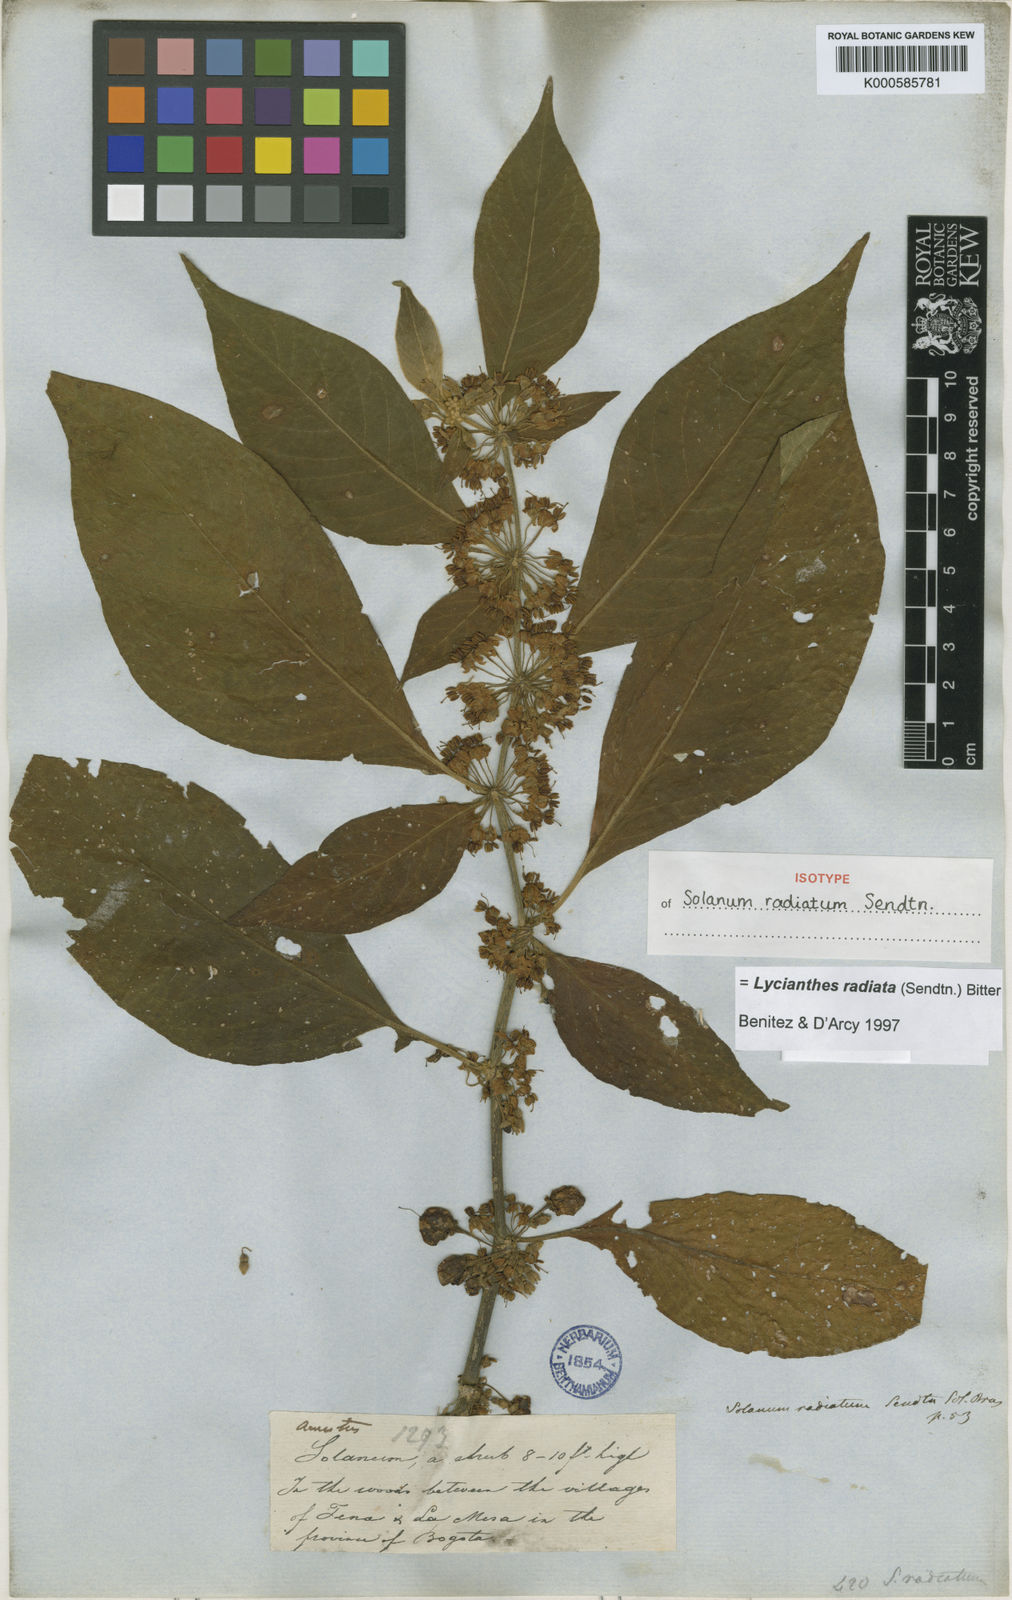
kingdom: Plantae
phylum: Tracheophyta
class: Magnoliopsida
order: Solanales
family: Solanaceae
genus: Lycianthes
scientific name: Lycianthes radiata
